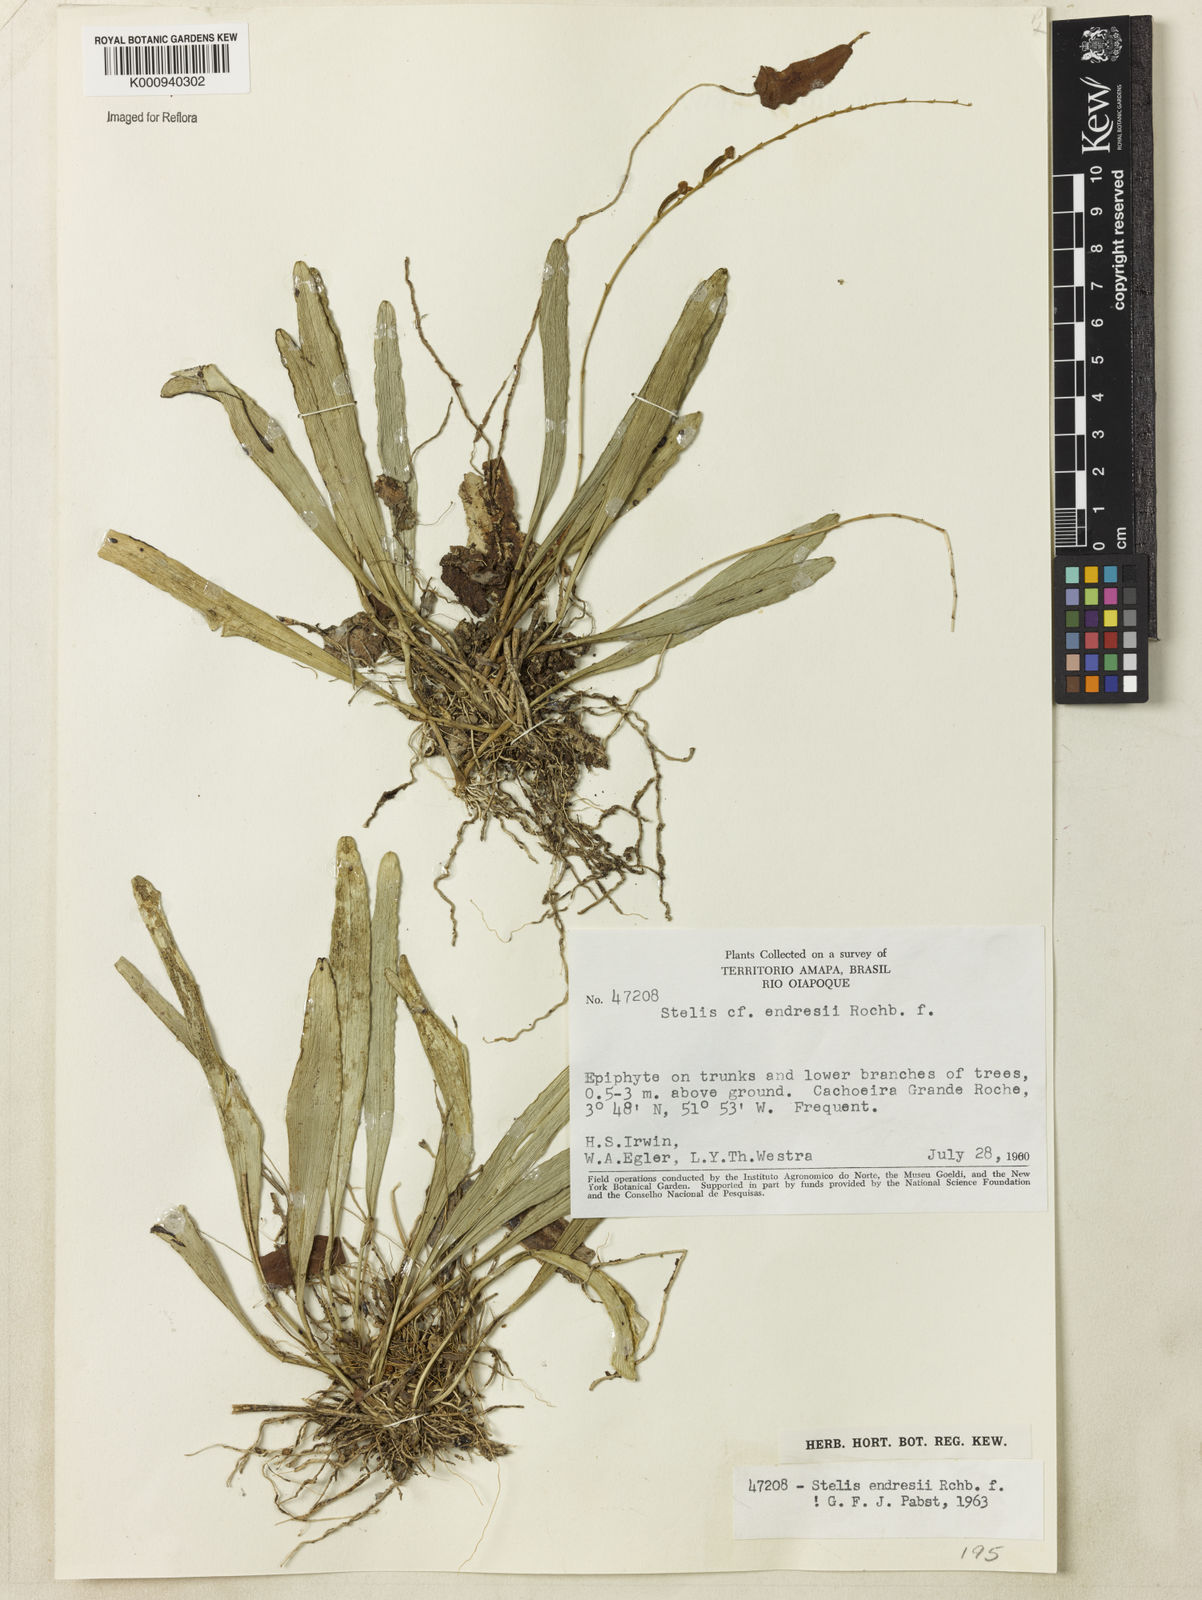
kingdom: Plantae
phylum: Tracheophyta
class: Liliopsida
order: Asparagales
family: Orchidaceae
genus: Stelis
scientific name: Stelis argentata
